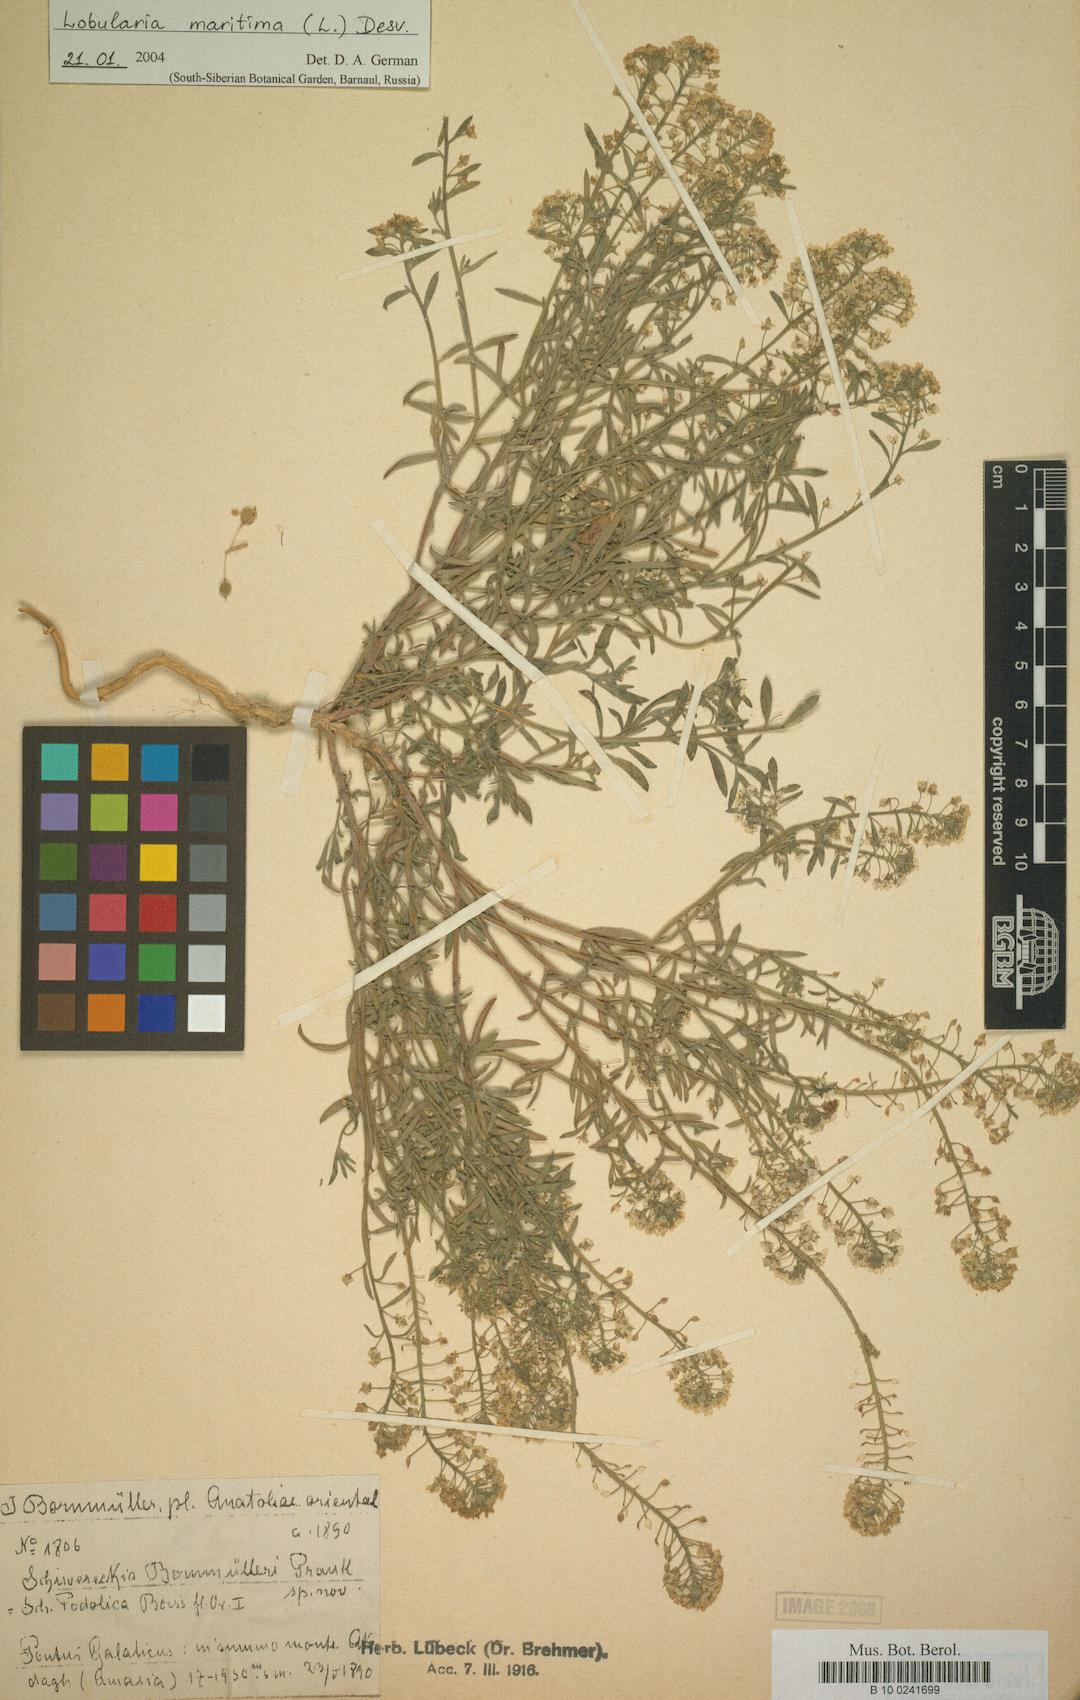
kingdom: Plantae
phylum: Tracheophyta
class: Magnoliopsida
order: Brassicales
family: Brassicaceae
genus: Lobularia
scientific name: Lobularia maritima
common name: Sweet alison
